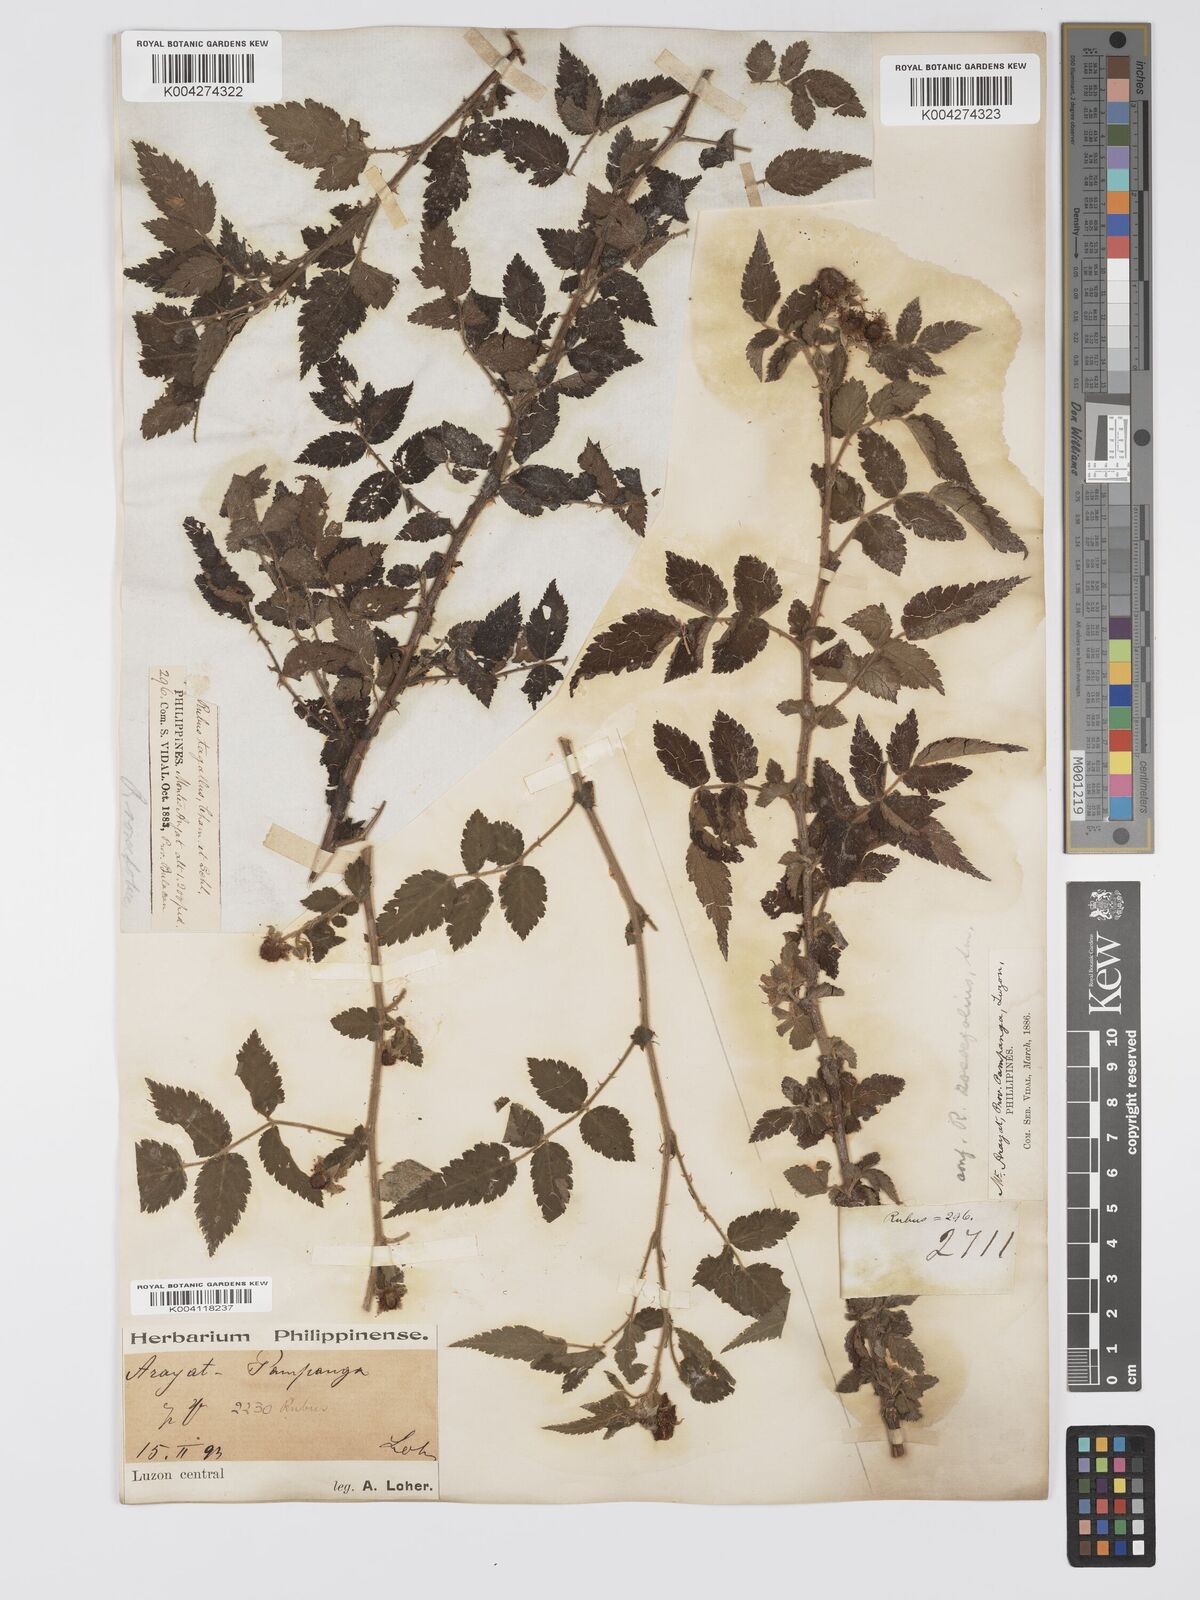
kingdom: Plantae
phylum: Tracheophyta
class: Magnoliopsida
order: Rosales
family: Rosaceae
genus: Rubus
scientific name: Rubus
